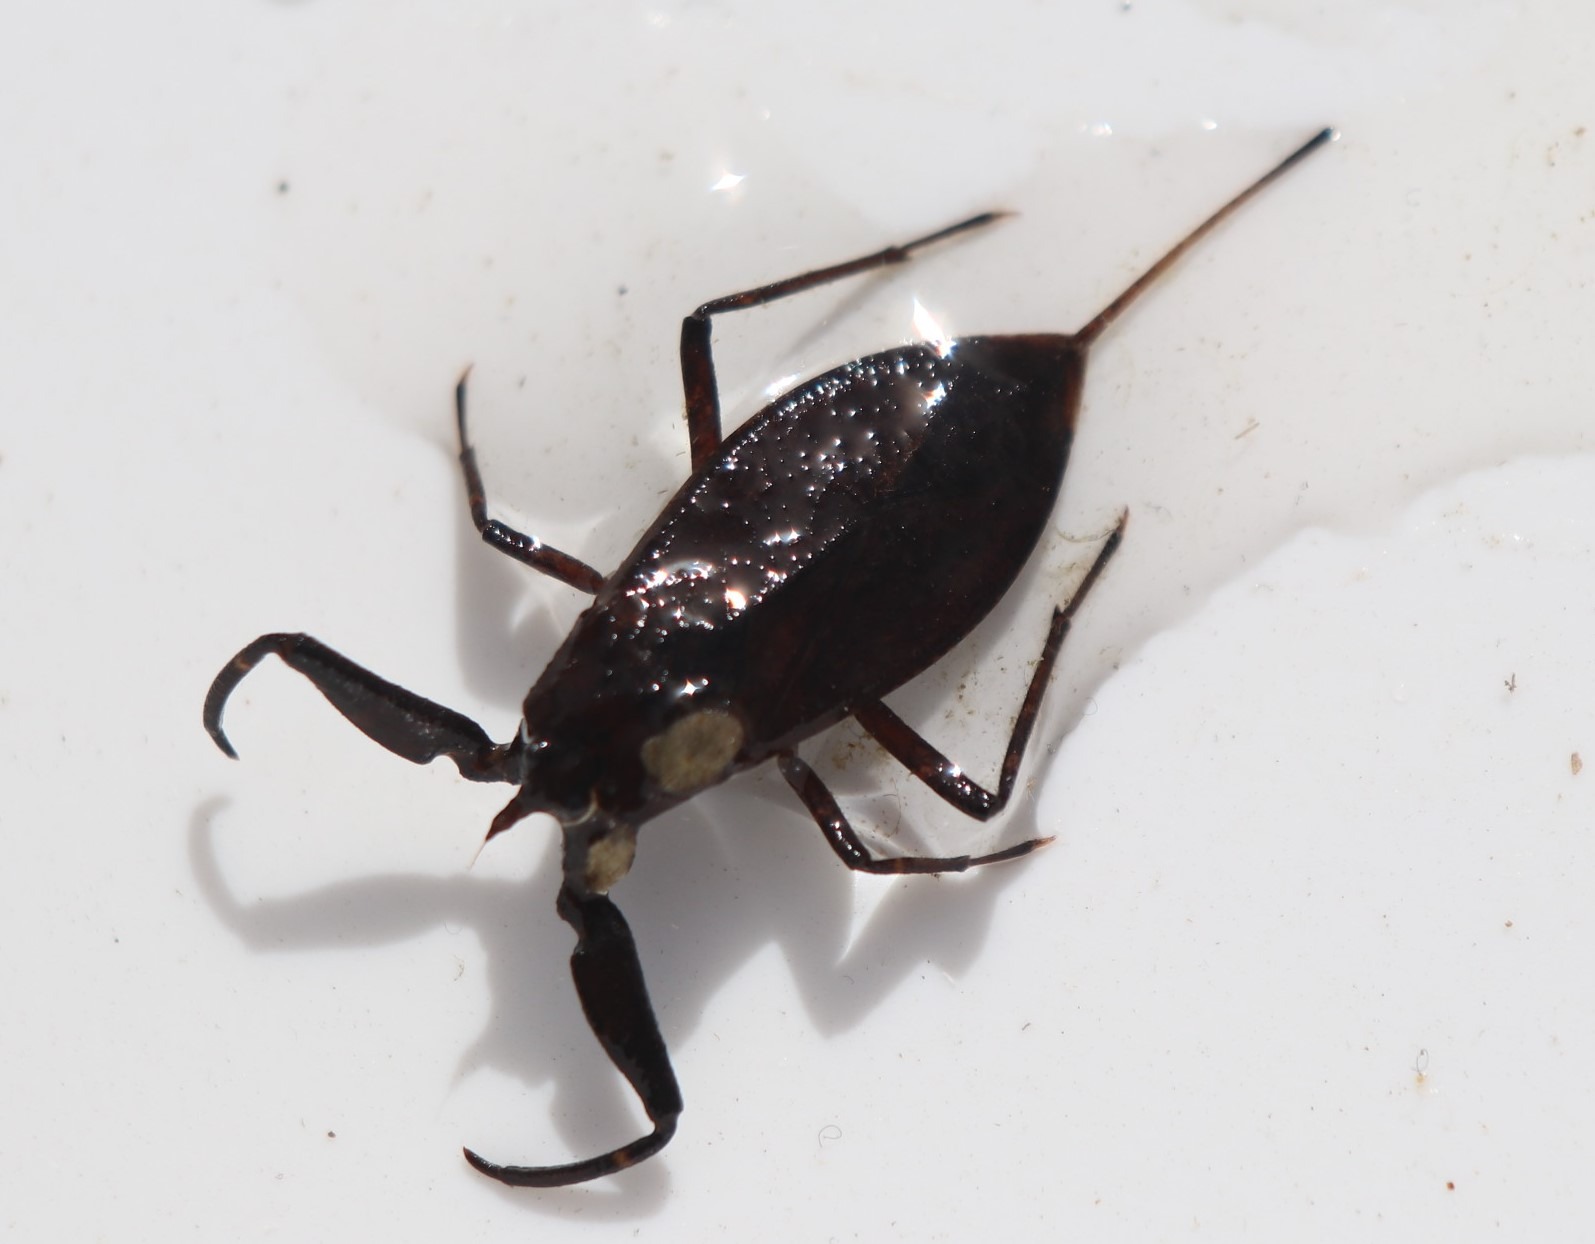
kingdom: Animalia
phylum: Arthropoda
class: Insecta
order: Hemiptera
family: Nepidae
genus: Nepa
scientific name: Nepa cinerea
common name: Skorpiontæge
